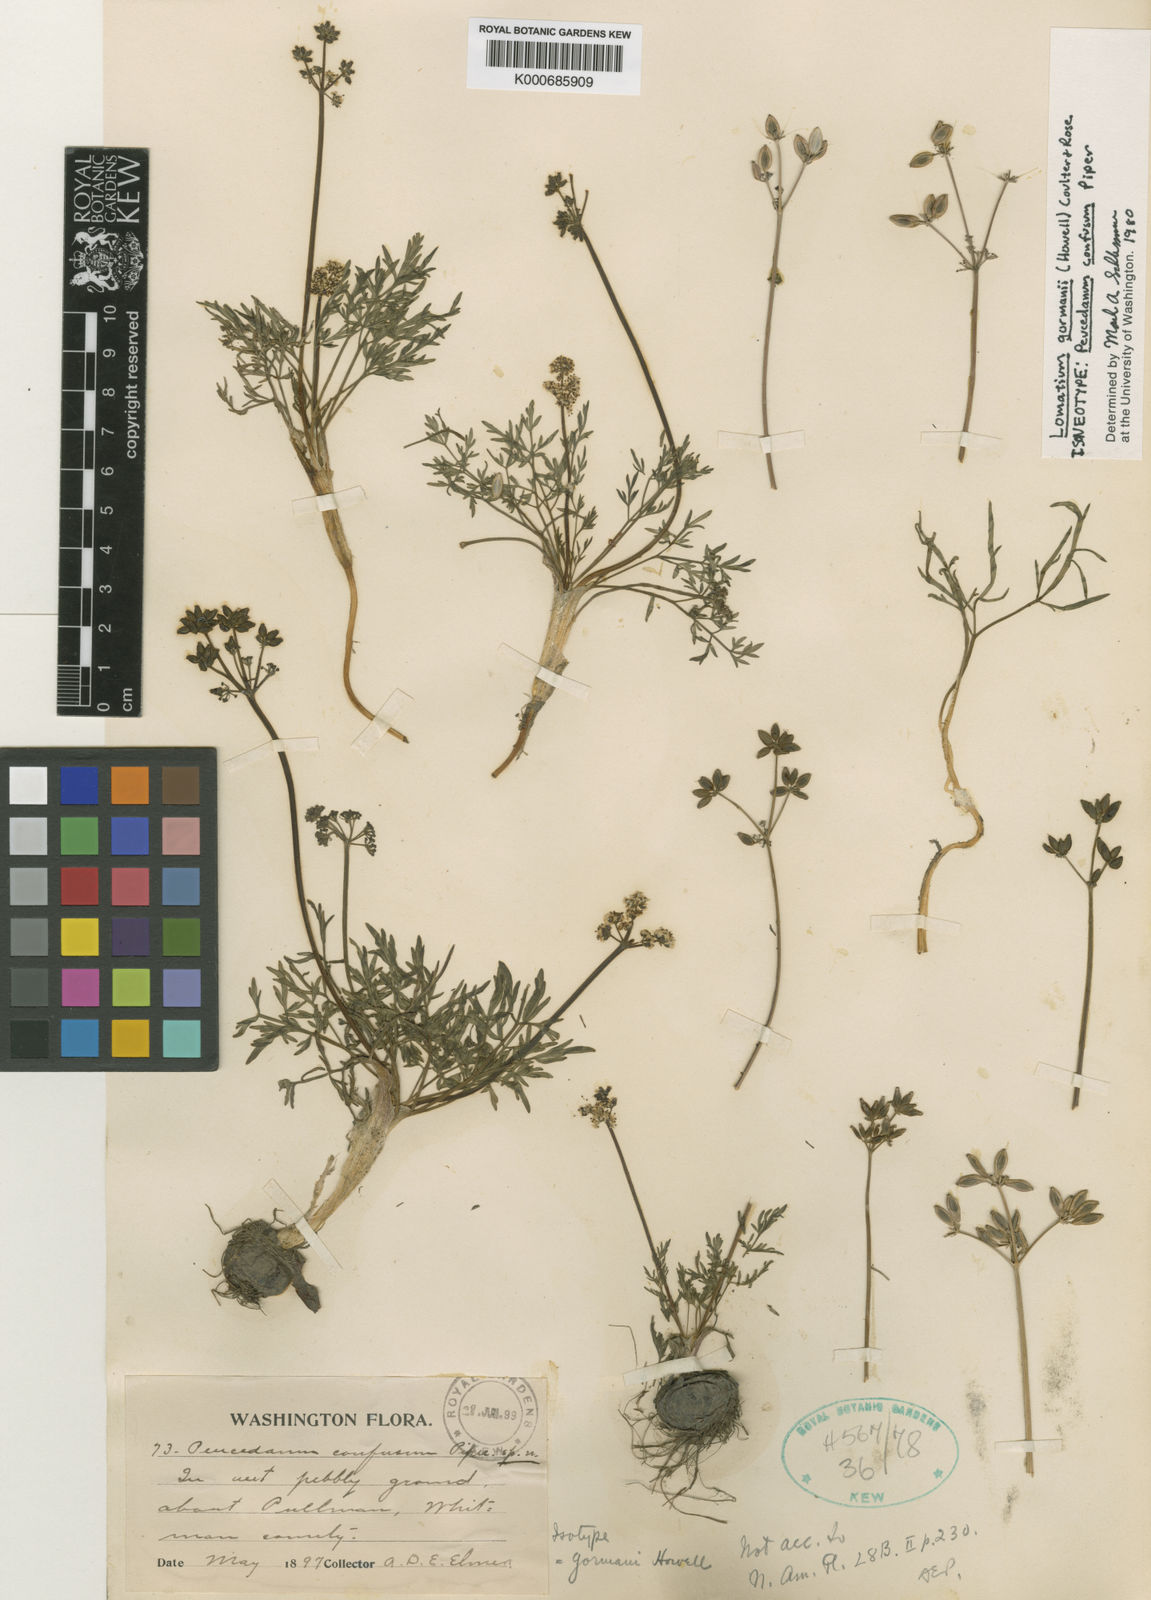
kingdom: Plantae
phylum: Tracheophyta
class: Magnoliopsida
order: Apiales
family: Apiaceae
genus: Lomatium
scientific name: Lomatium gormanii
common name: Gorman's biscuitroot
